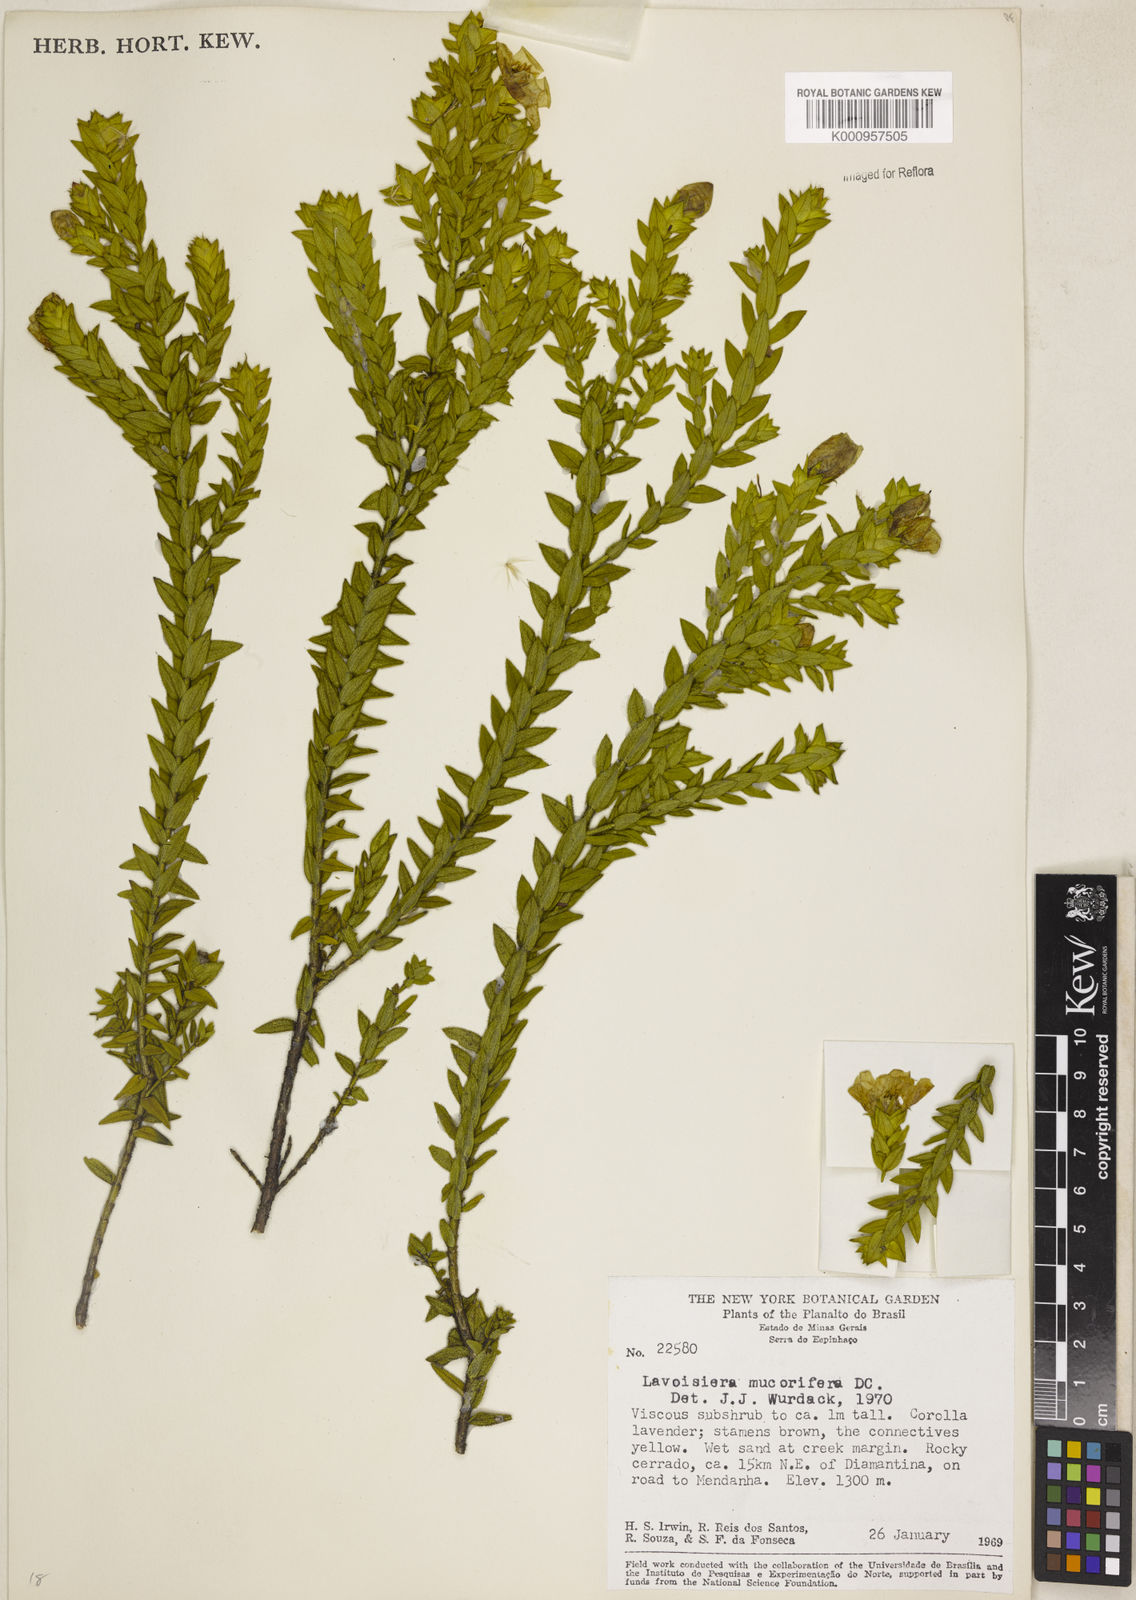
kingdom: Plantae
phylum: Tracheophyta
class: Magnoliopsida
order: Myrtales
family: Melastomataceae
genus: Microlicia
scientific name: Microlicia mucorifera
